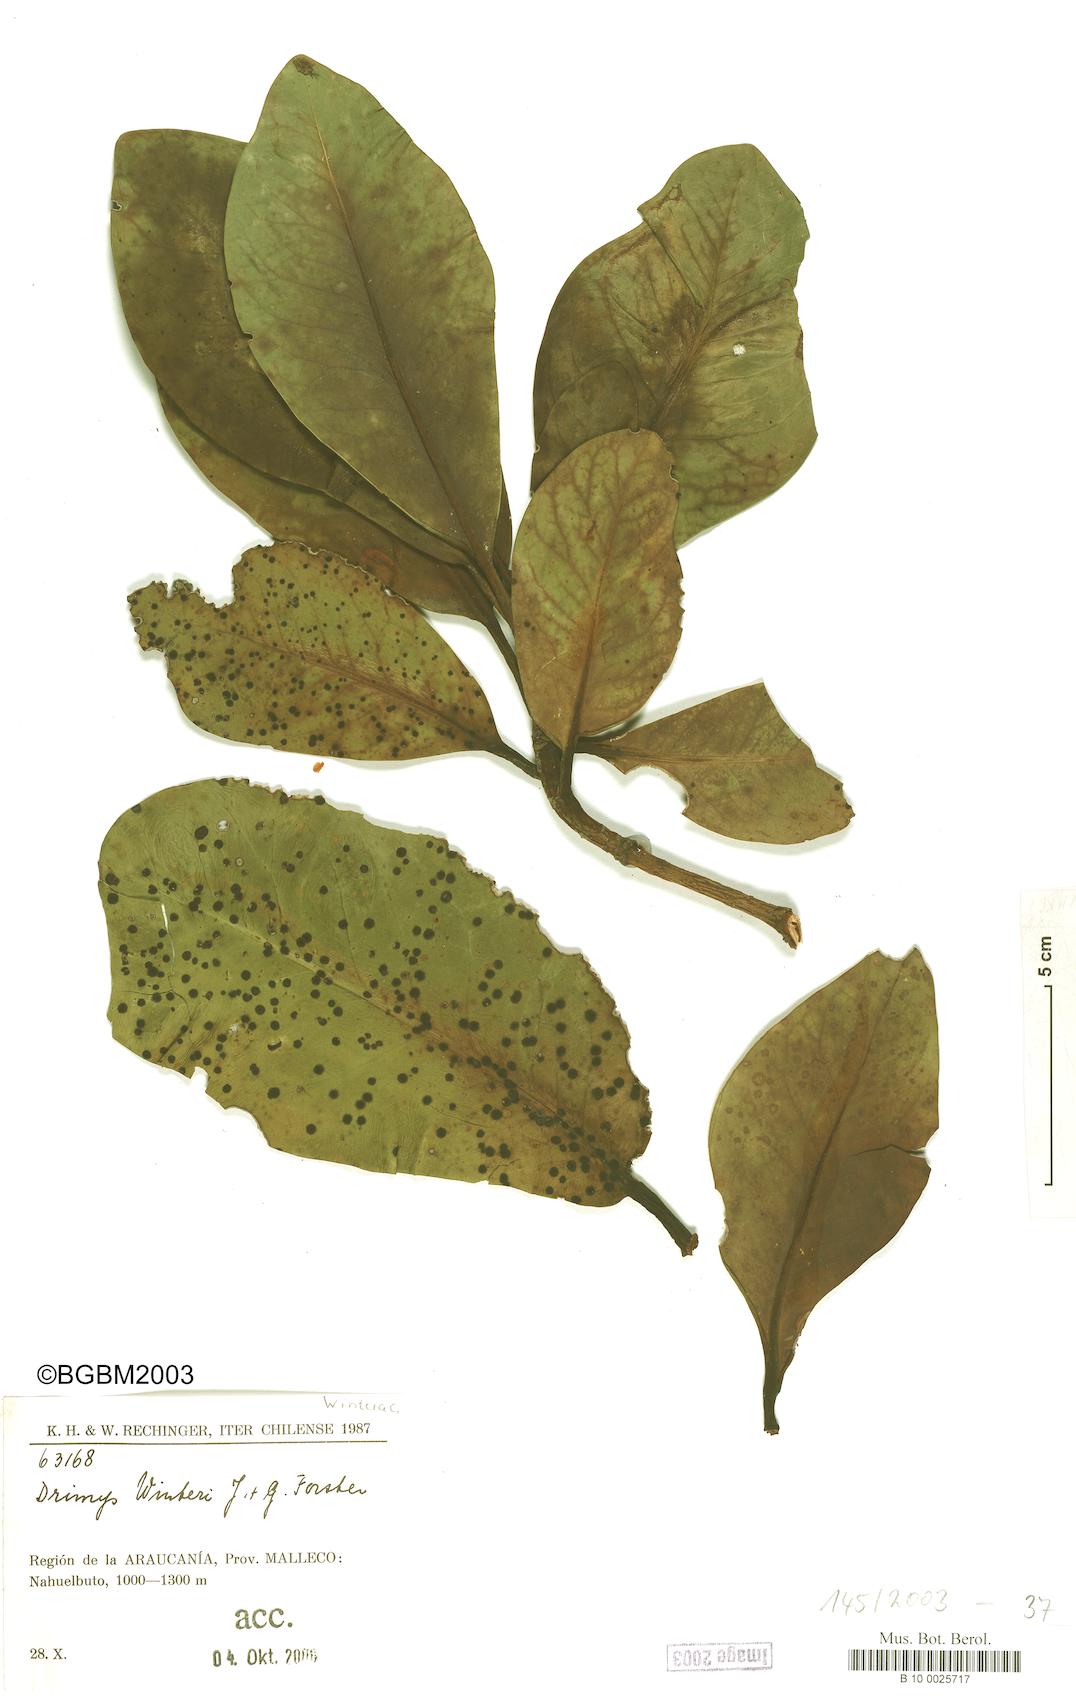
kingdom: Plantae
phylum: Tracheophyta
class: Magnoliopsida
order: Canellales
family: Winteraceae
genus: Drimys
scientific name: Drimys winteri
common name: Winter's-bark
